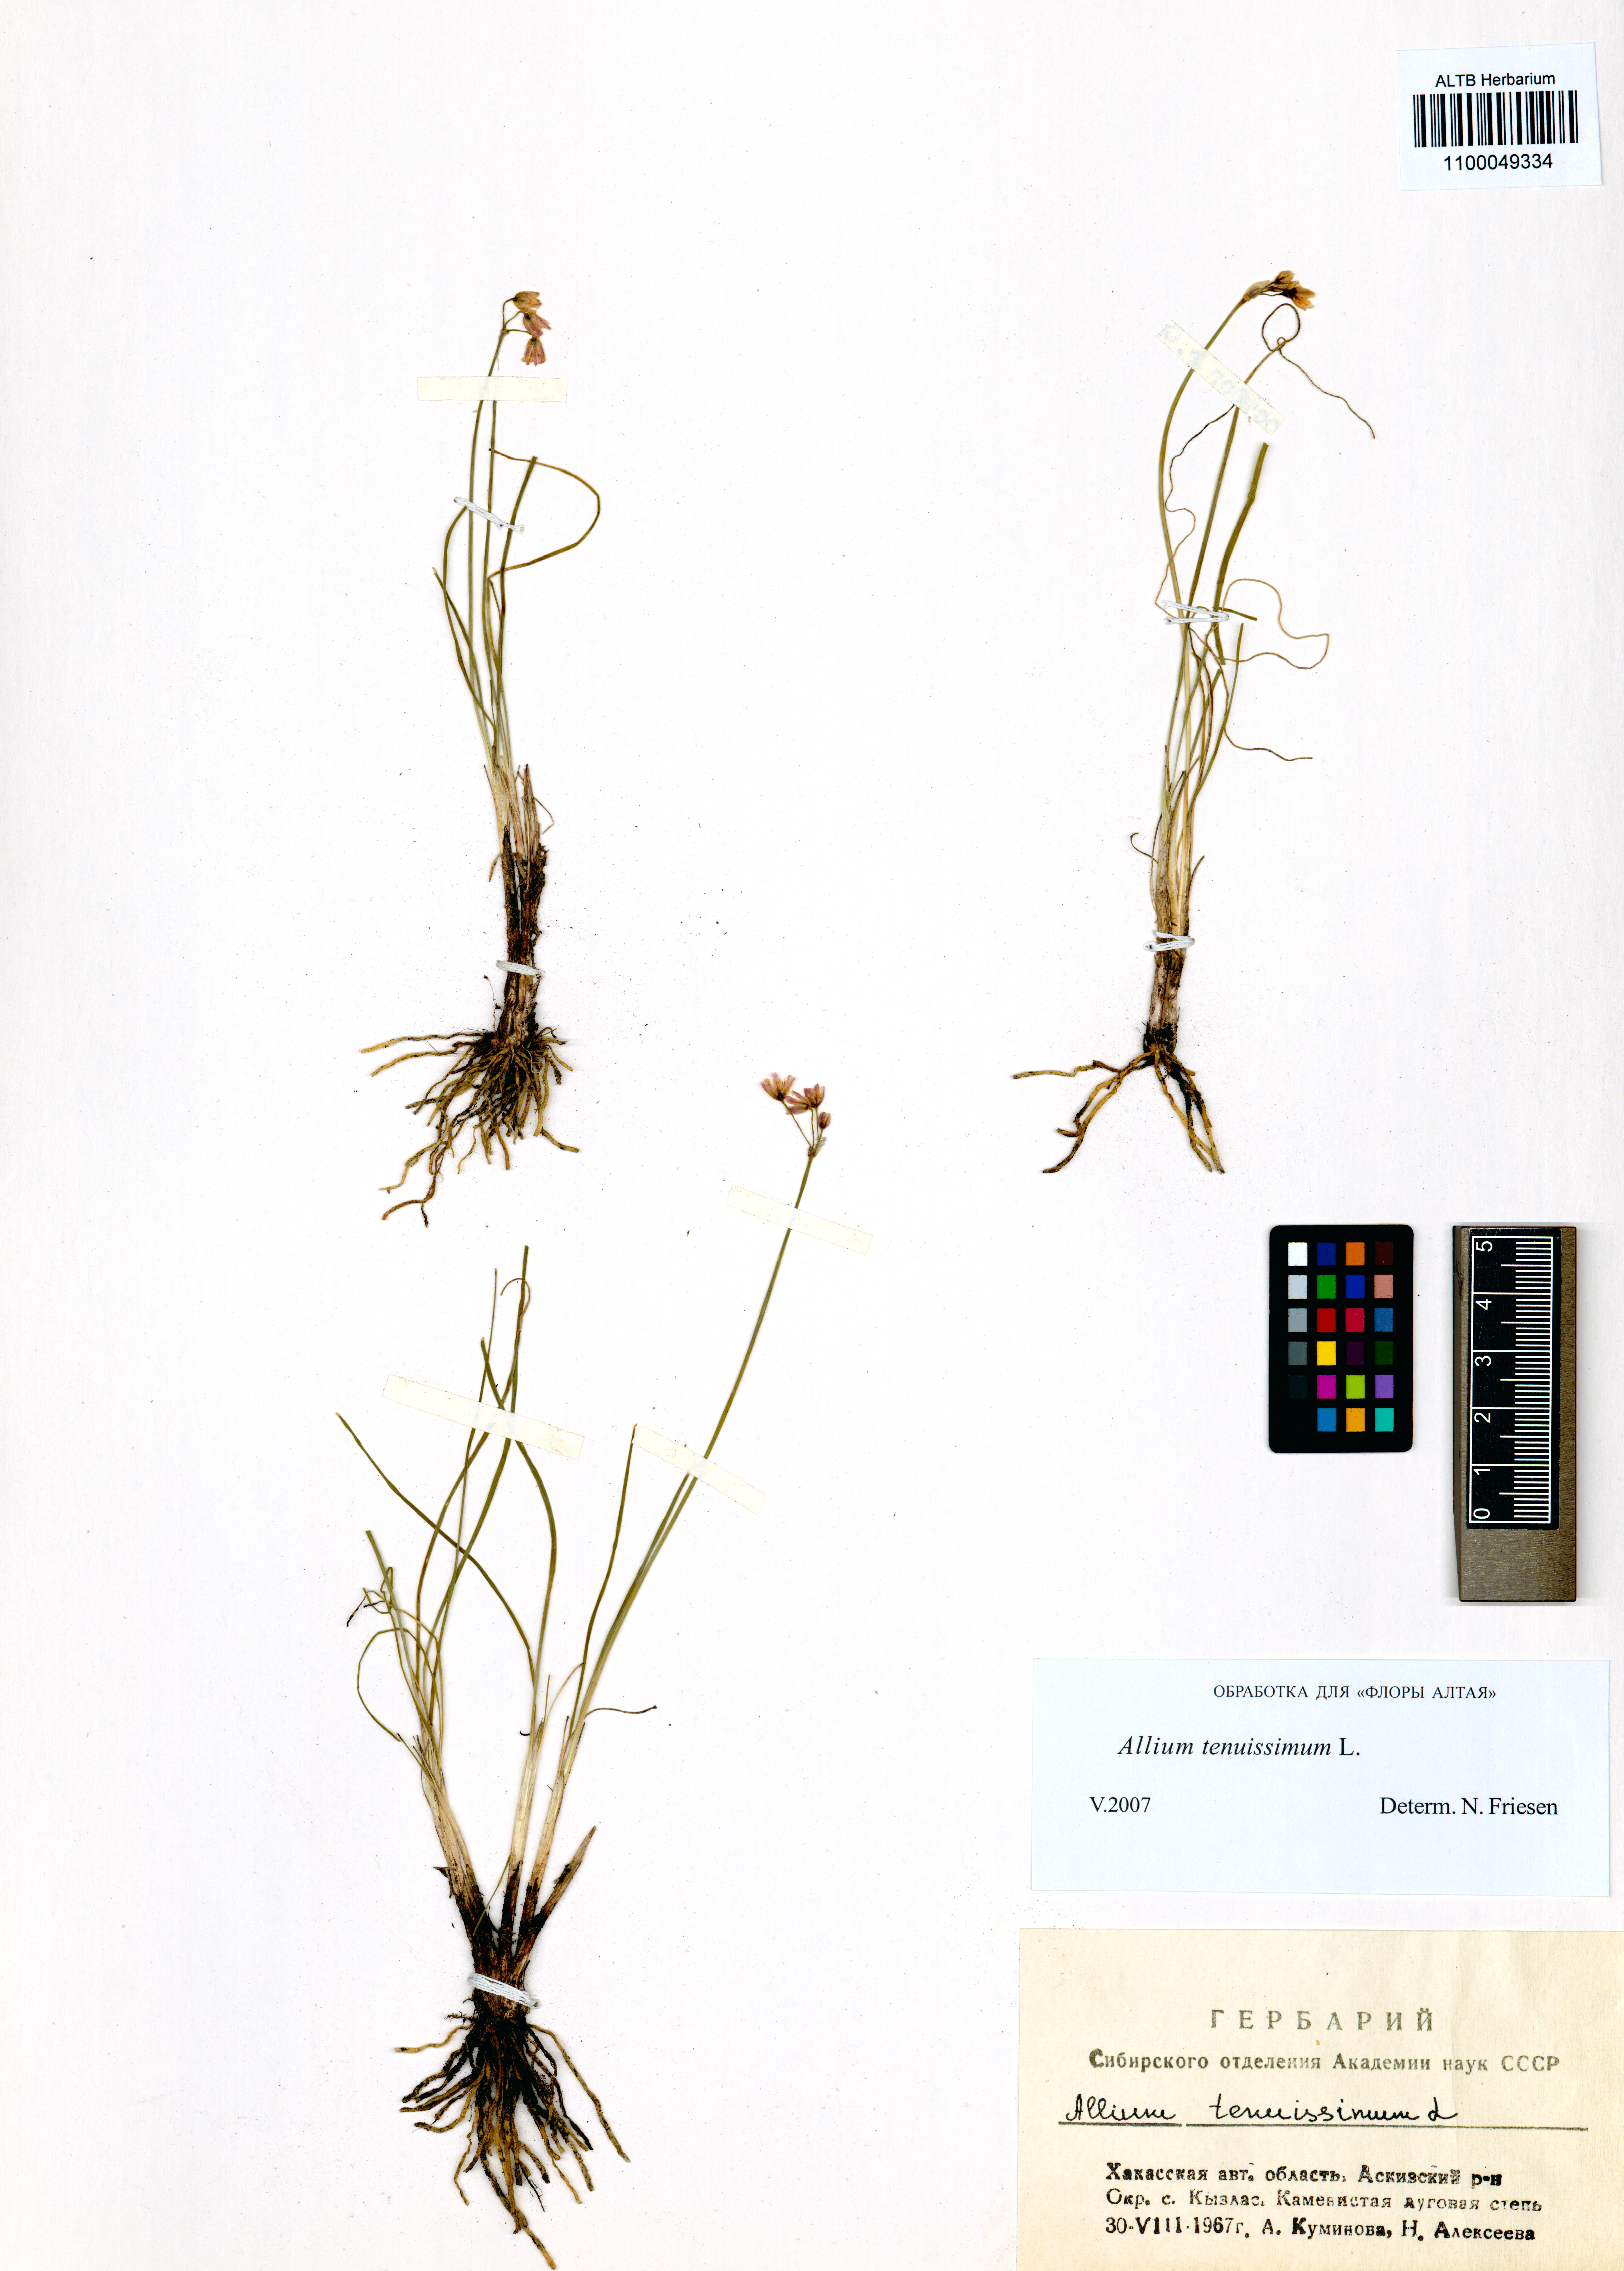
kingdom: Plantae
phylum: Tracheophyta
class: Liliopsida
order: Asparagales
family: Amaryllidaceae
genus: Allium
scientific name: Allium tenuissimum
